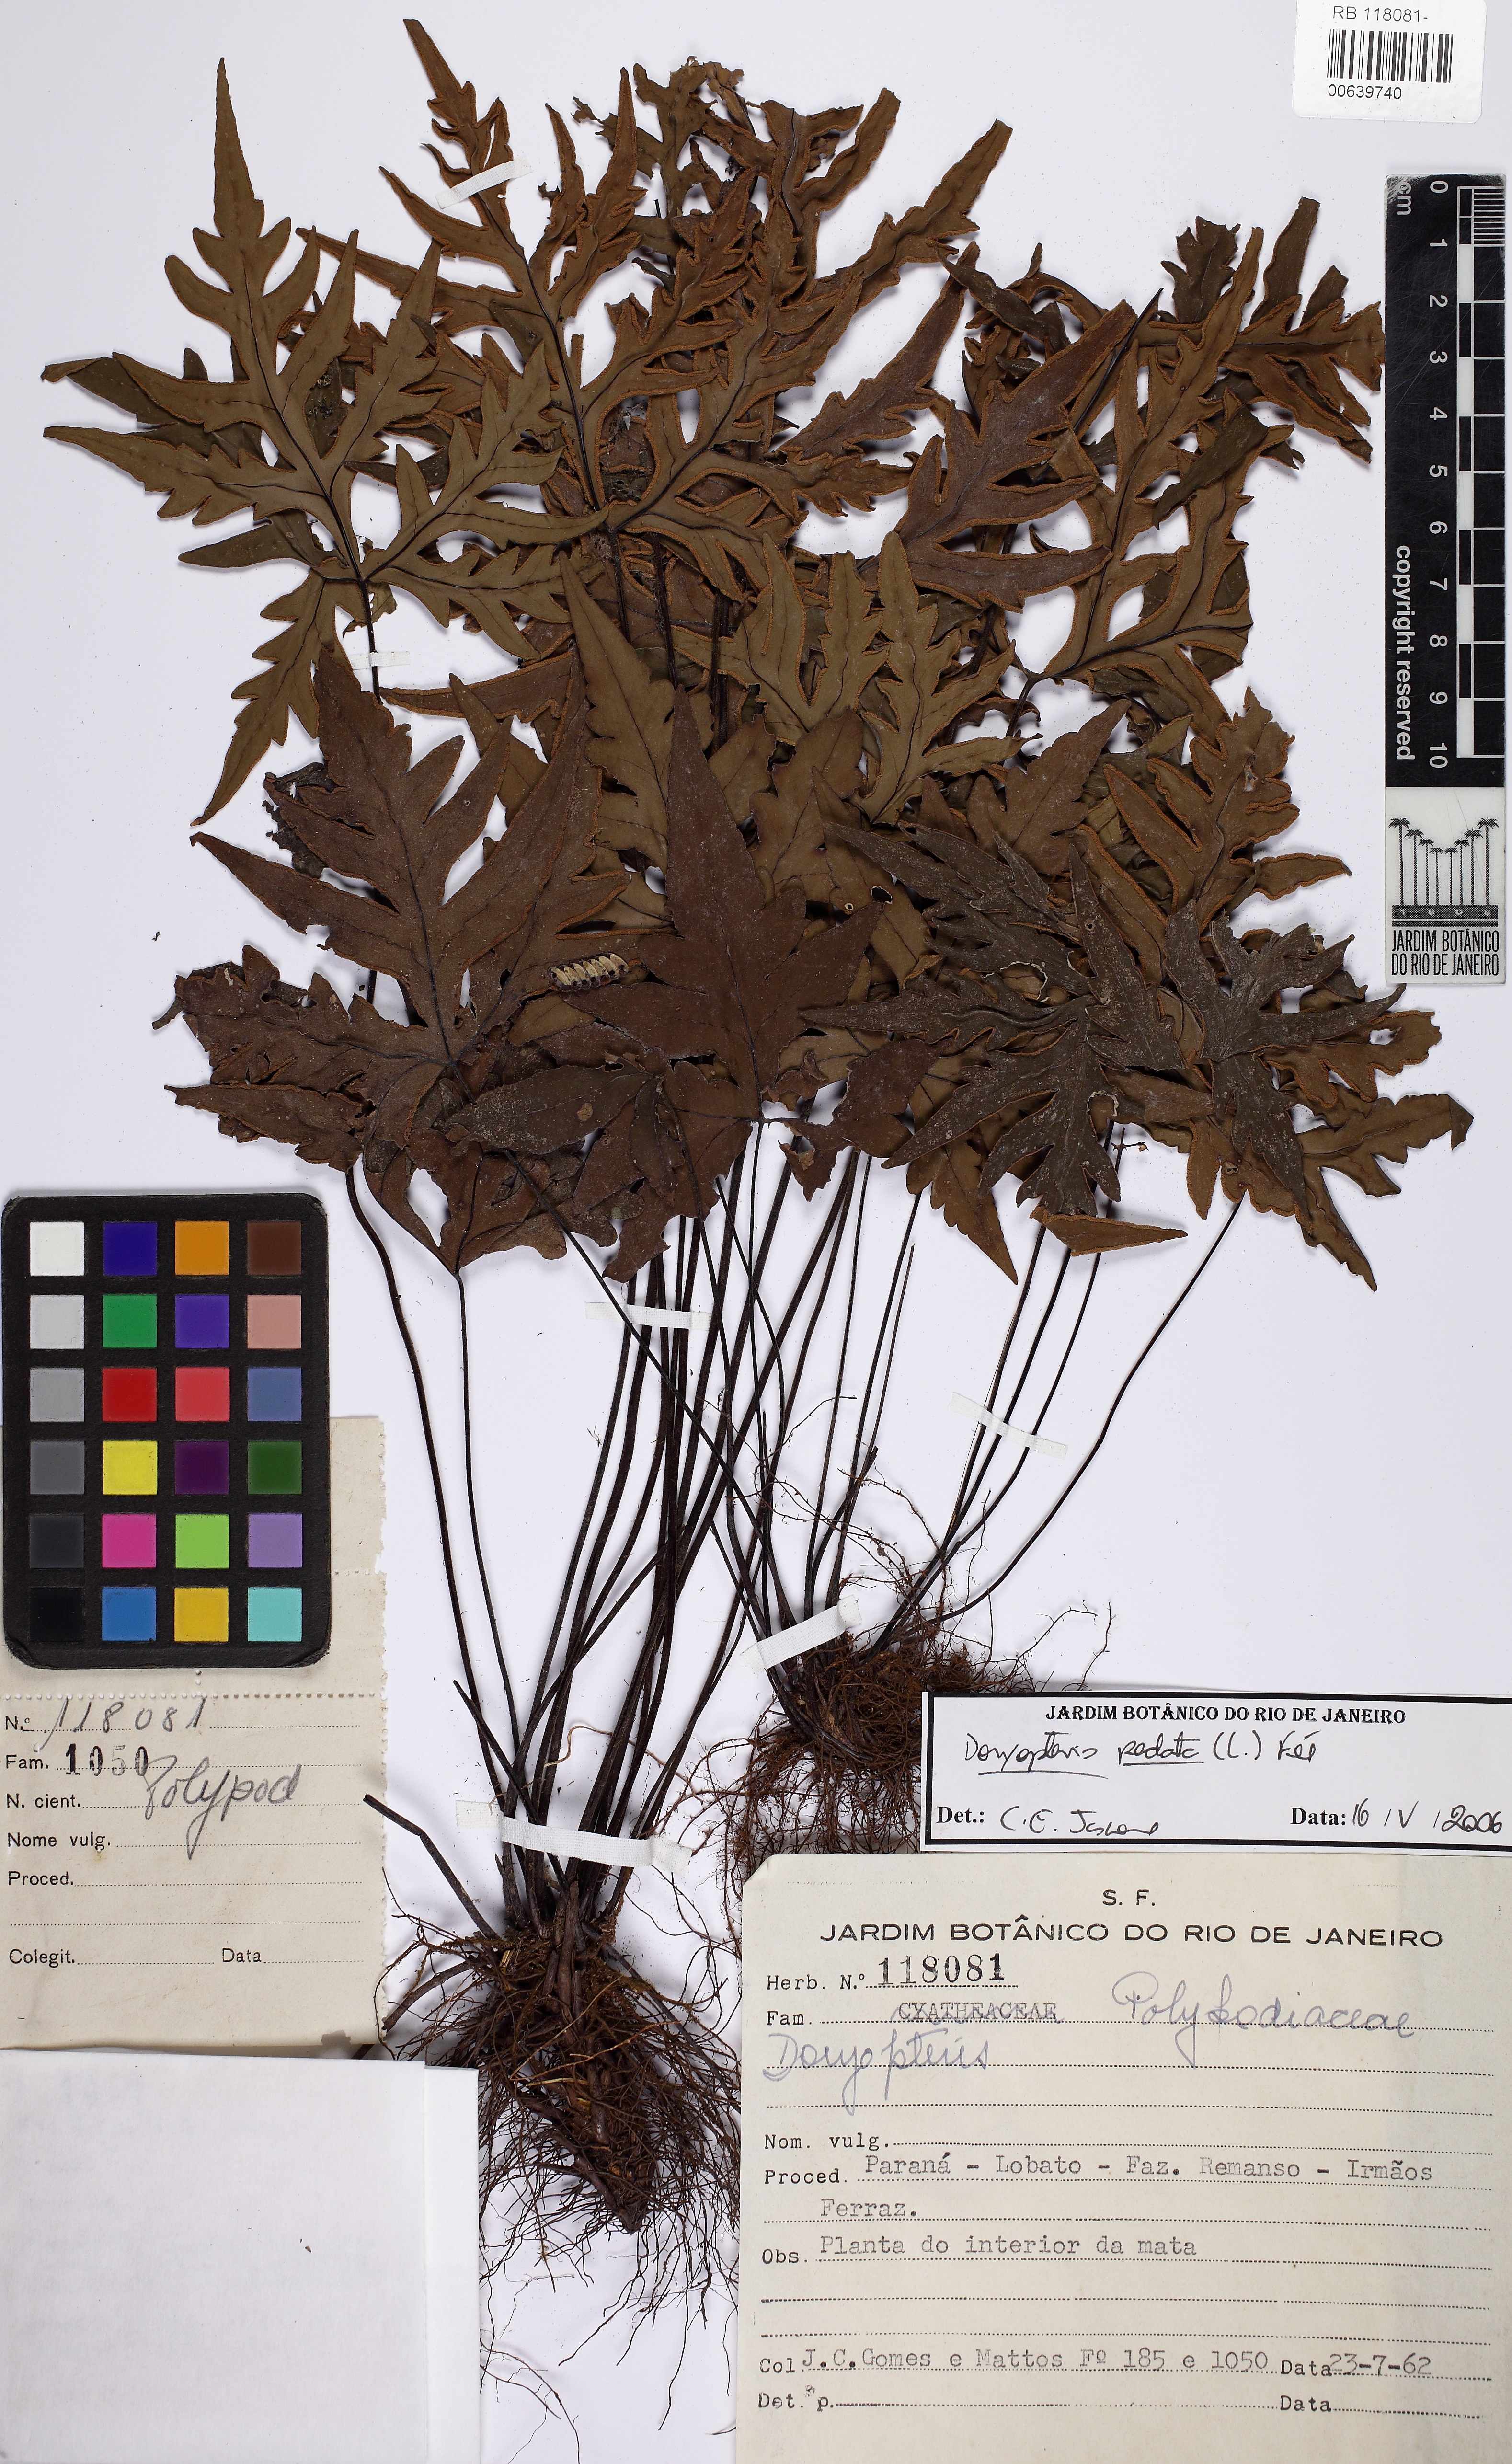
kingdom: Plantae
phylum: Tracheophyta
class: Polypodiopsida
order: Polypodiales
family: Pteridaceae
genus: Doryopteris
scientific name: Doryopteris pentagona
